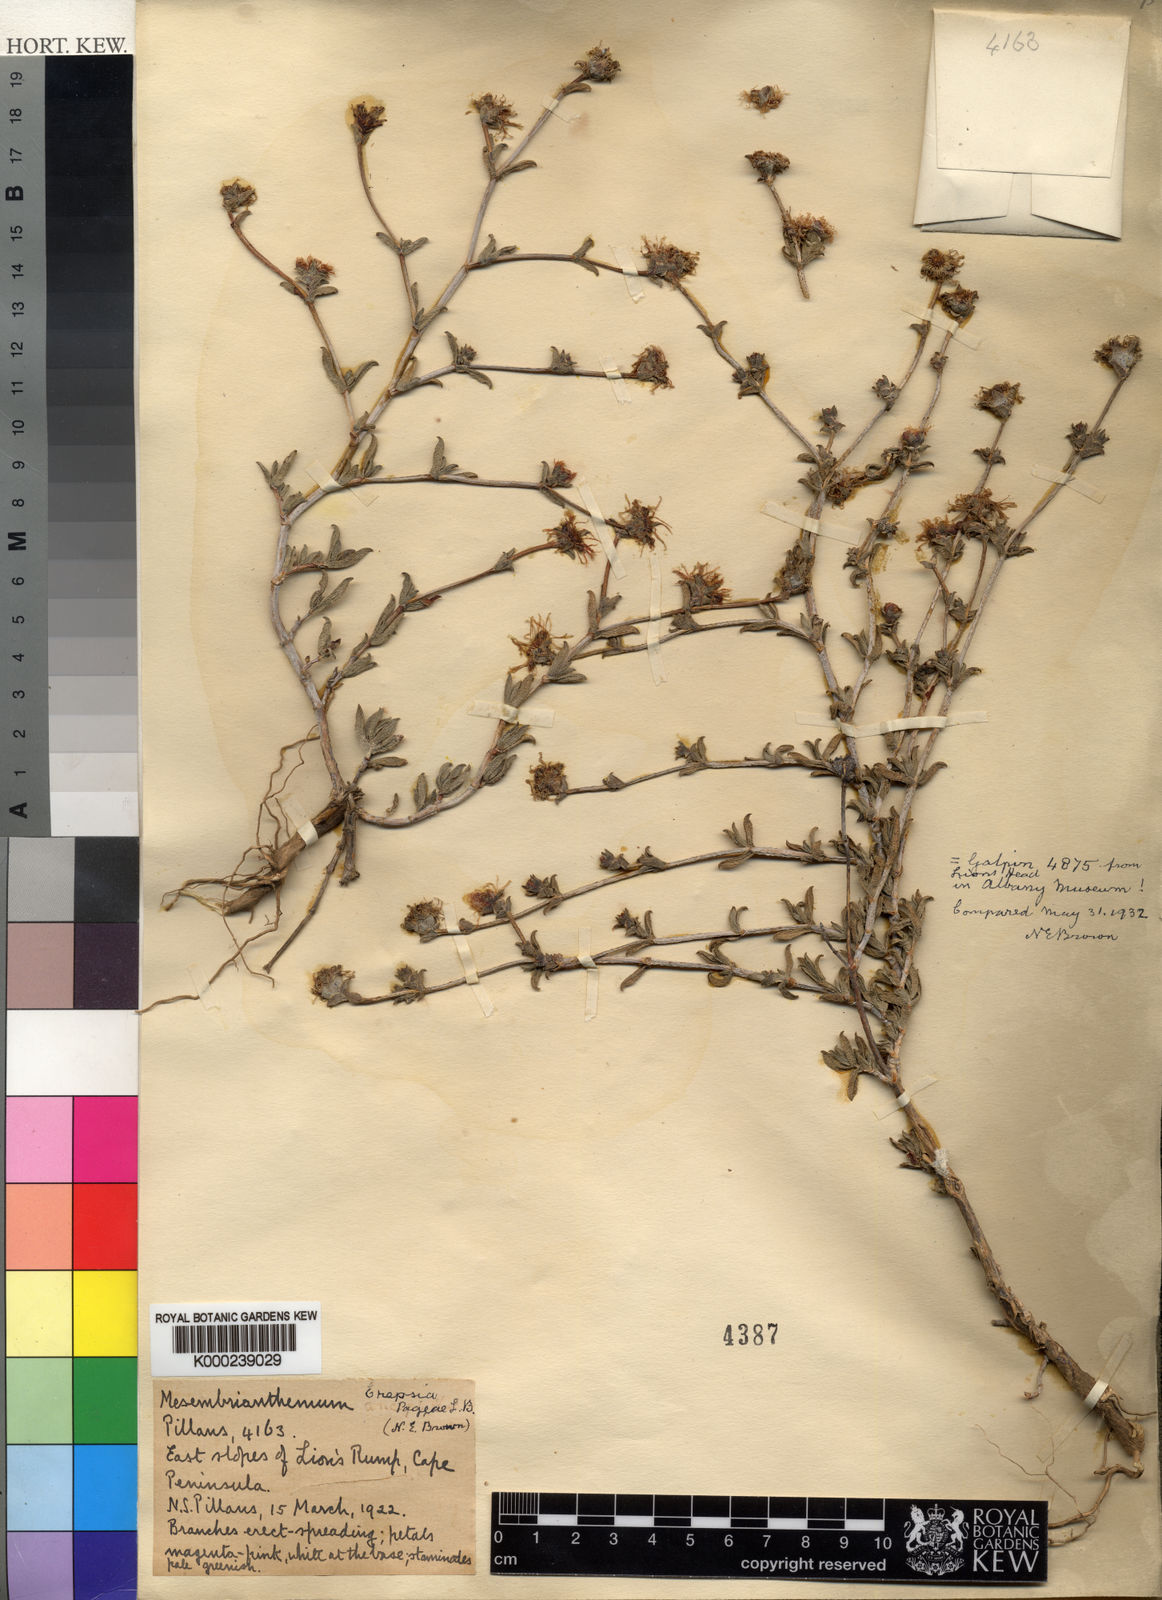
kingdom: Plantae
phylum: Tracheophyta
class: Magnoliopsida
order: Caryophyllales
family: Aizoaceae
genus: Erepsia
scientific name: Erepsia patula
